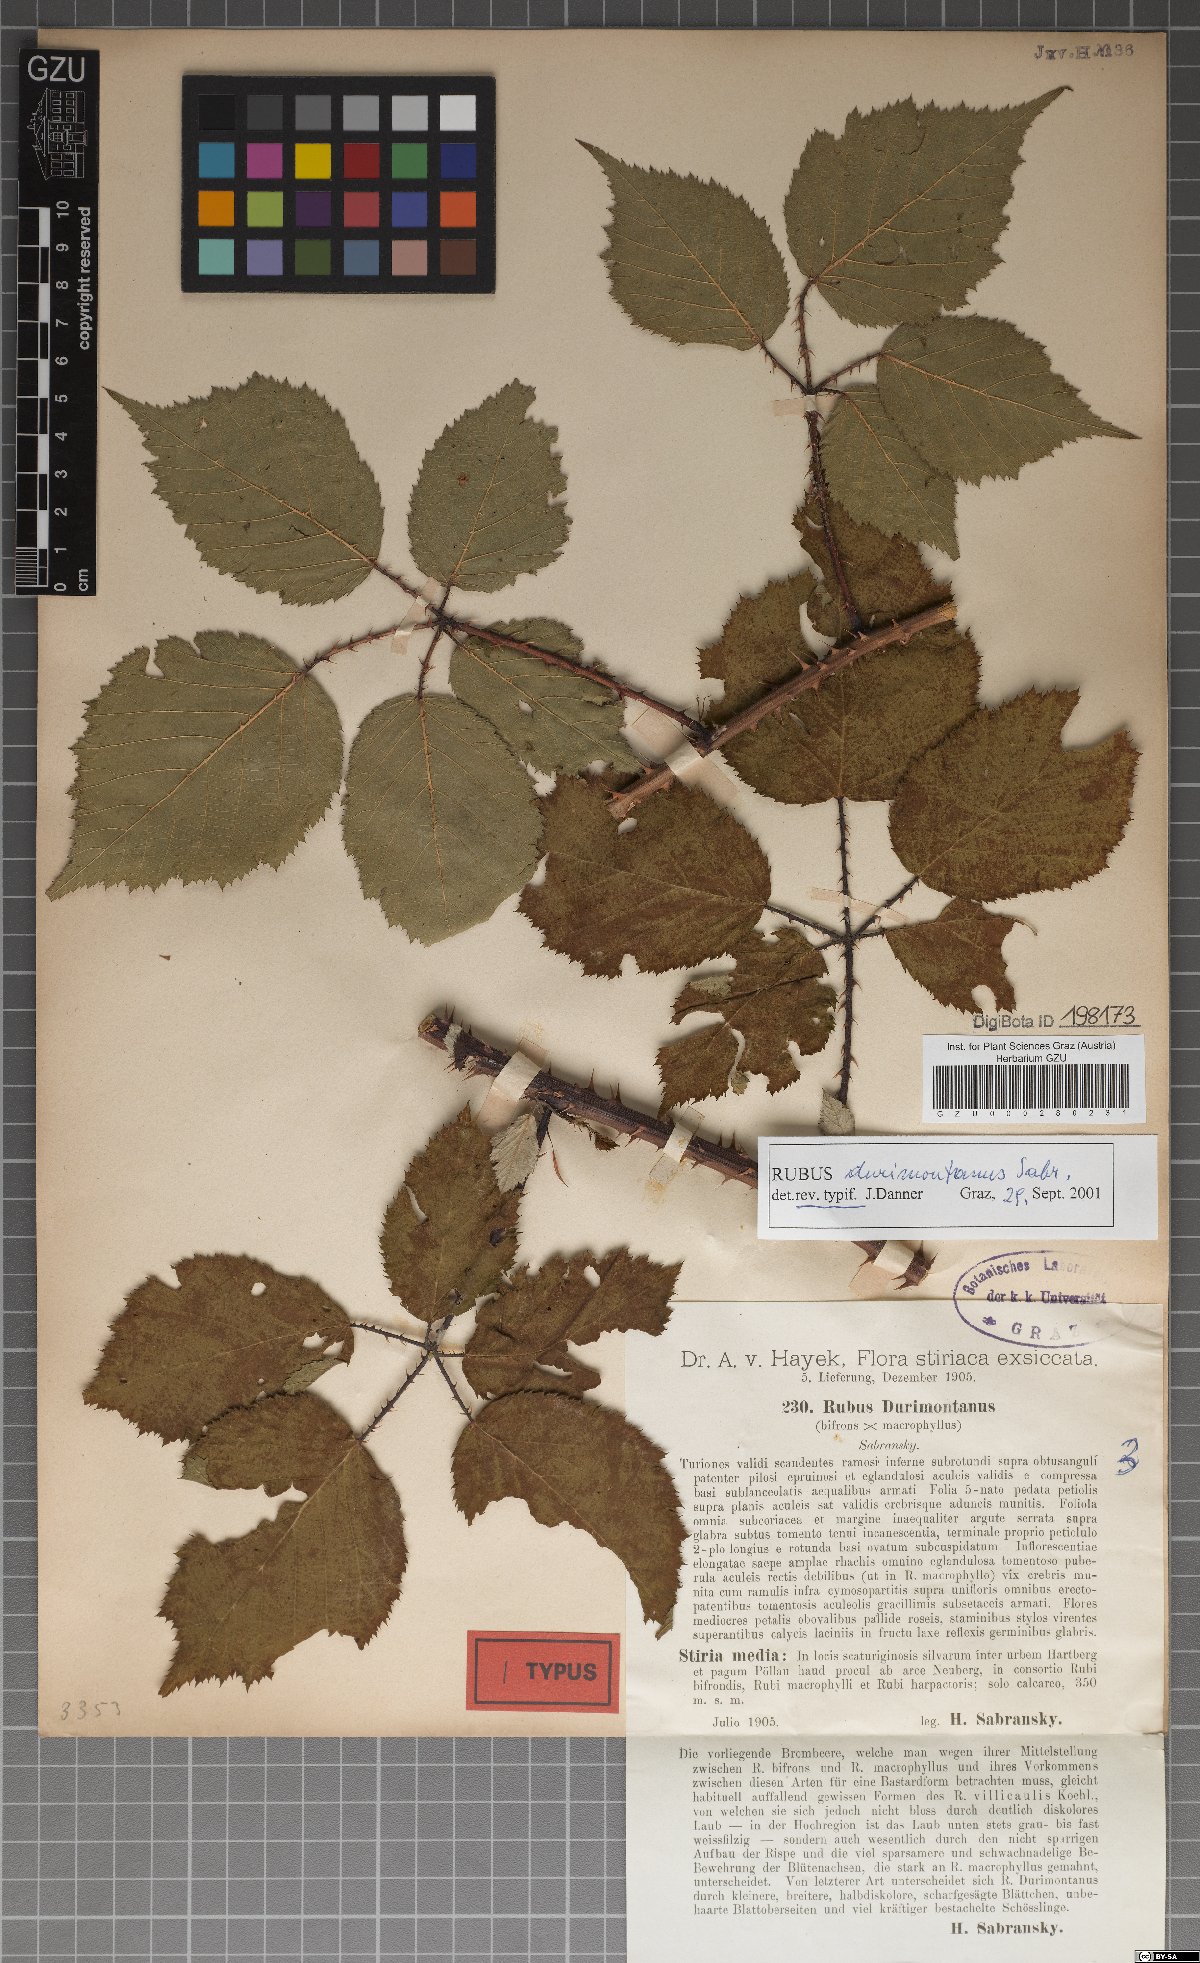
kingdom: Plantae
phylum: Tracheophyta
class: Magnoliopsida
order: Rosales
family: Rosaceae
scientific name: Rosaceae
